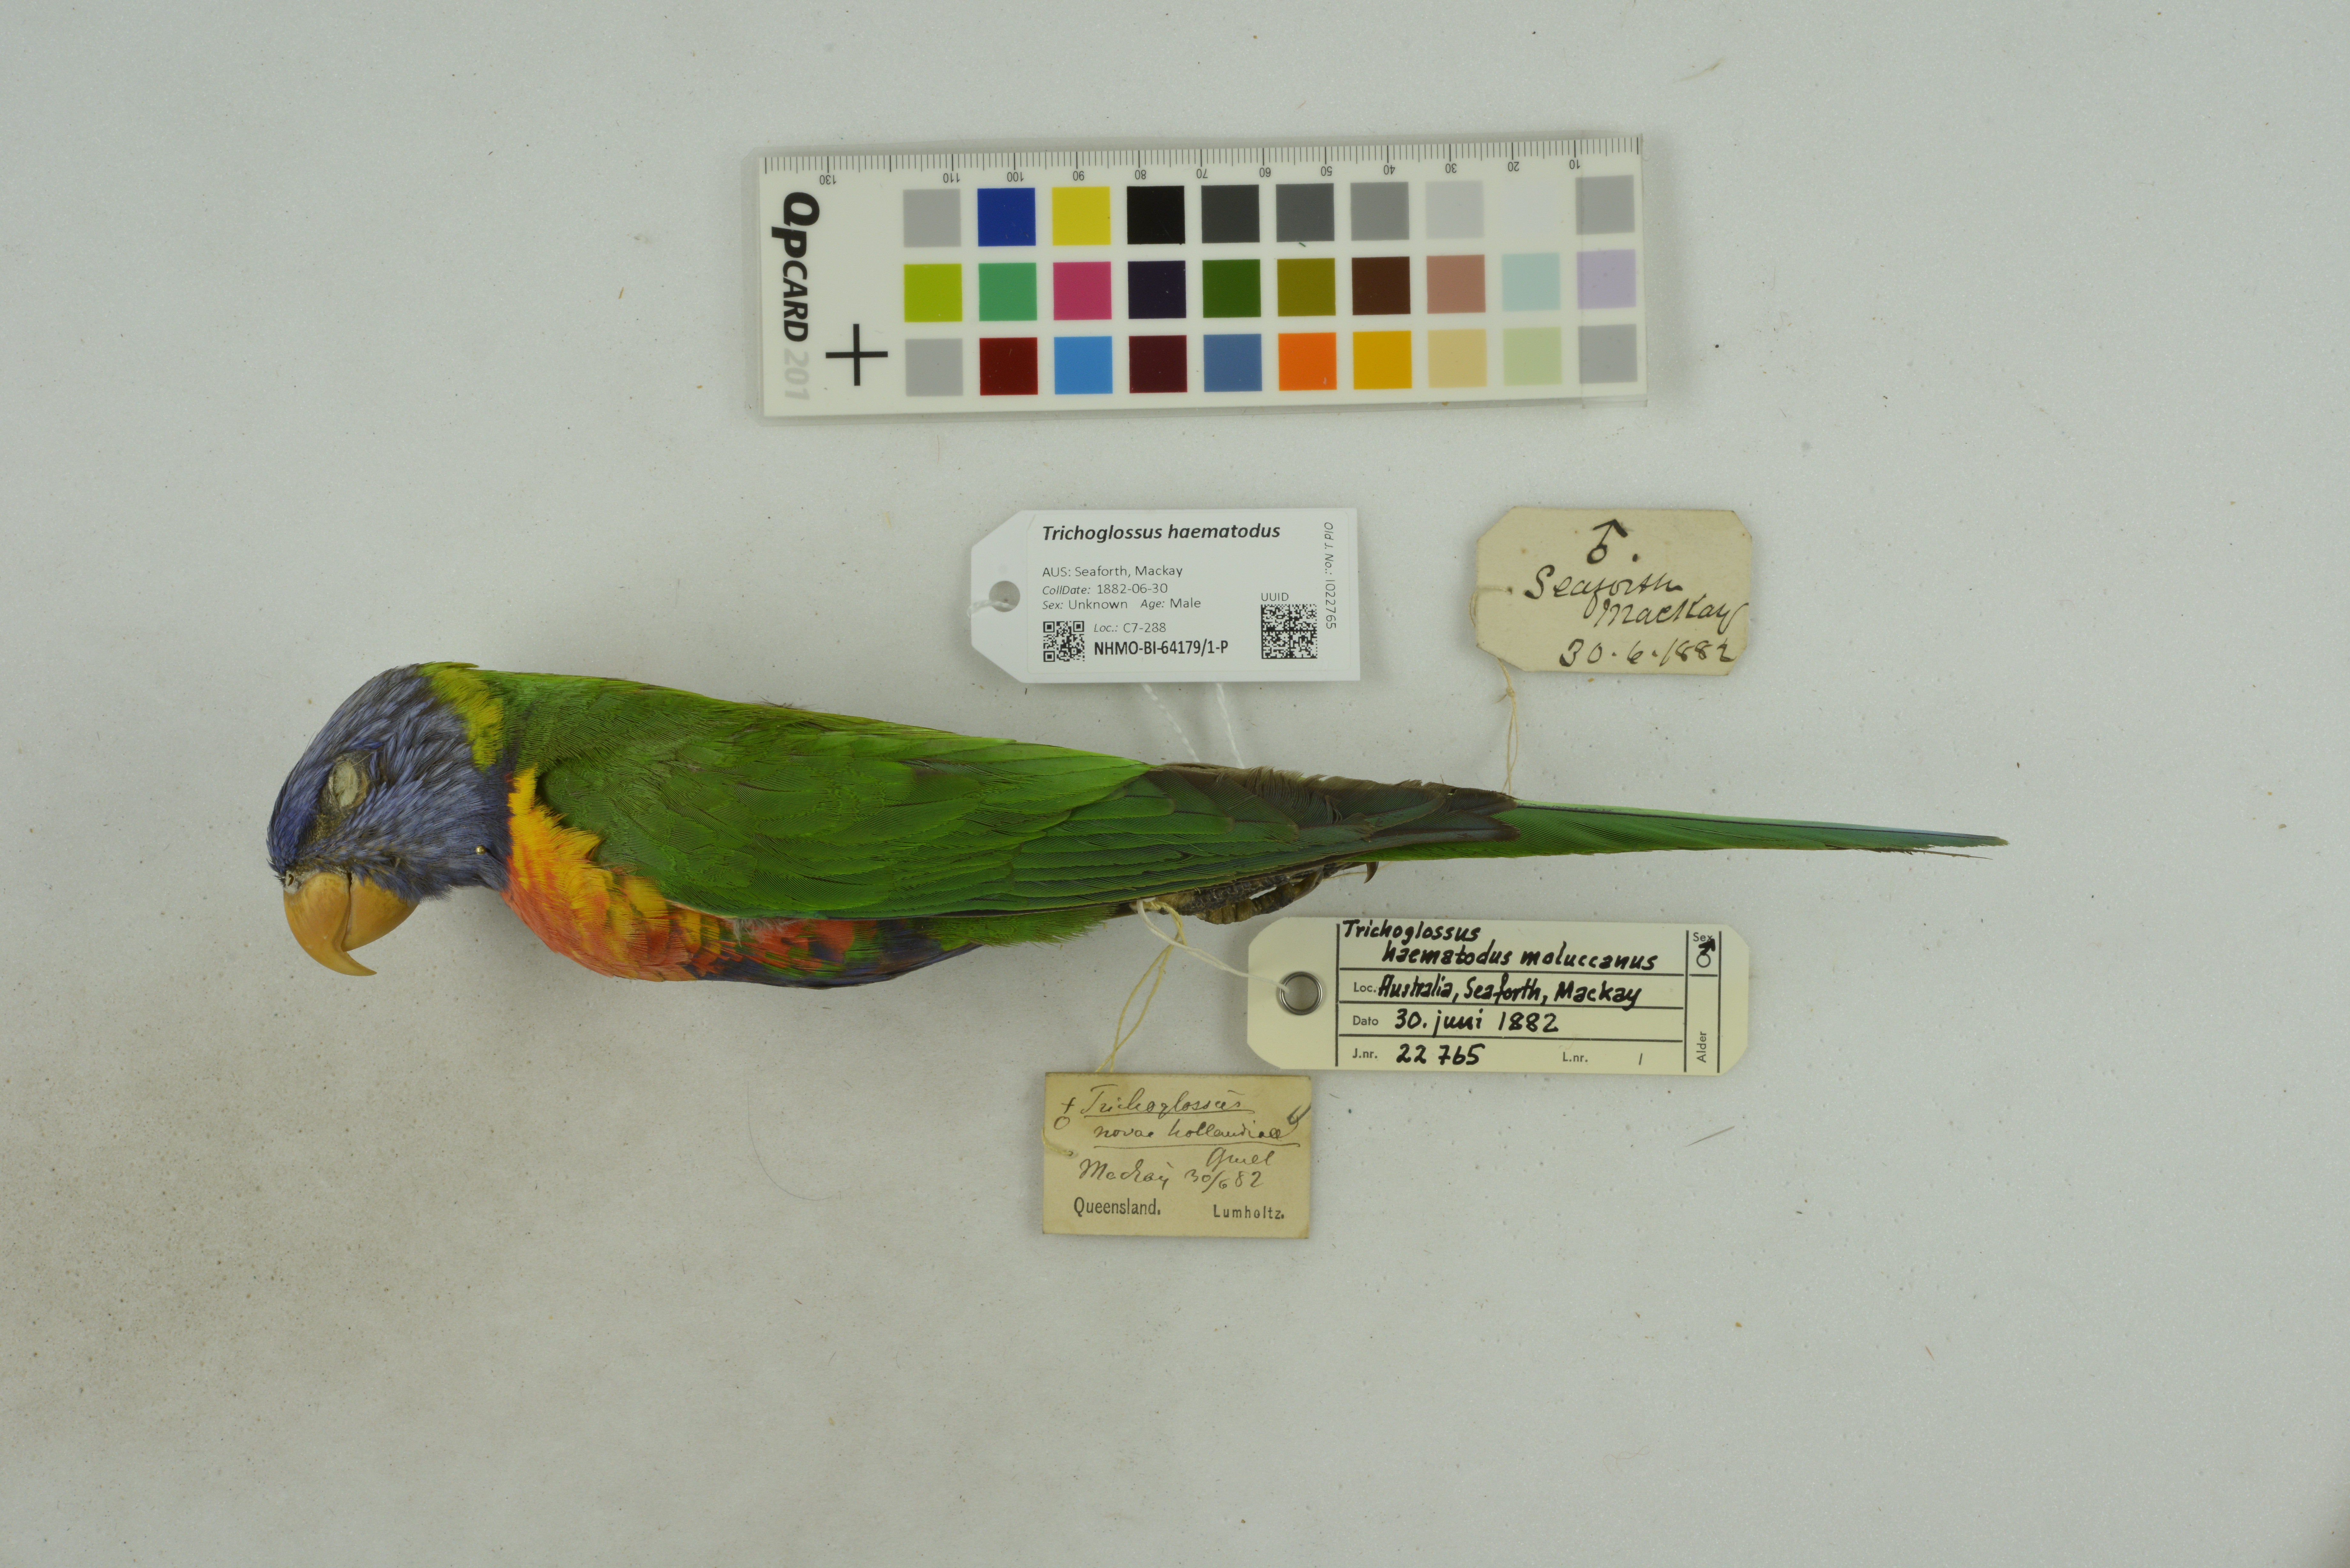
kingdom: Animalia
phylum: Chordata
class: Aves
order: Psittaciformes
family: Psittacidae
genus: Trichoglossus
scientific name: Trichoglossus haematodus
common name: Coconut lorikeet
